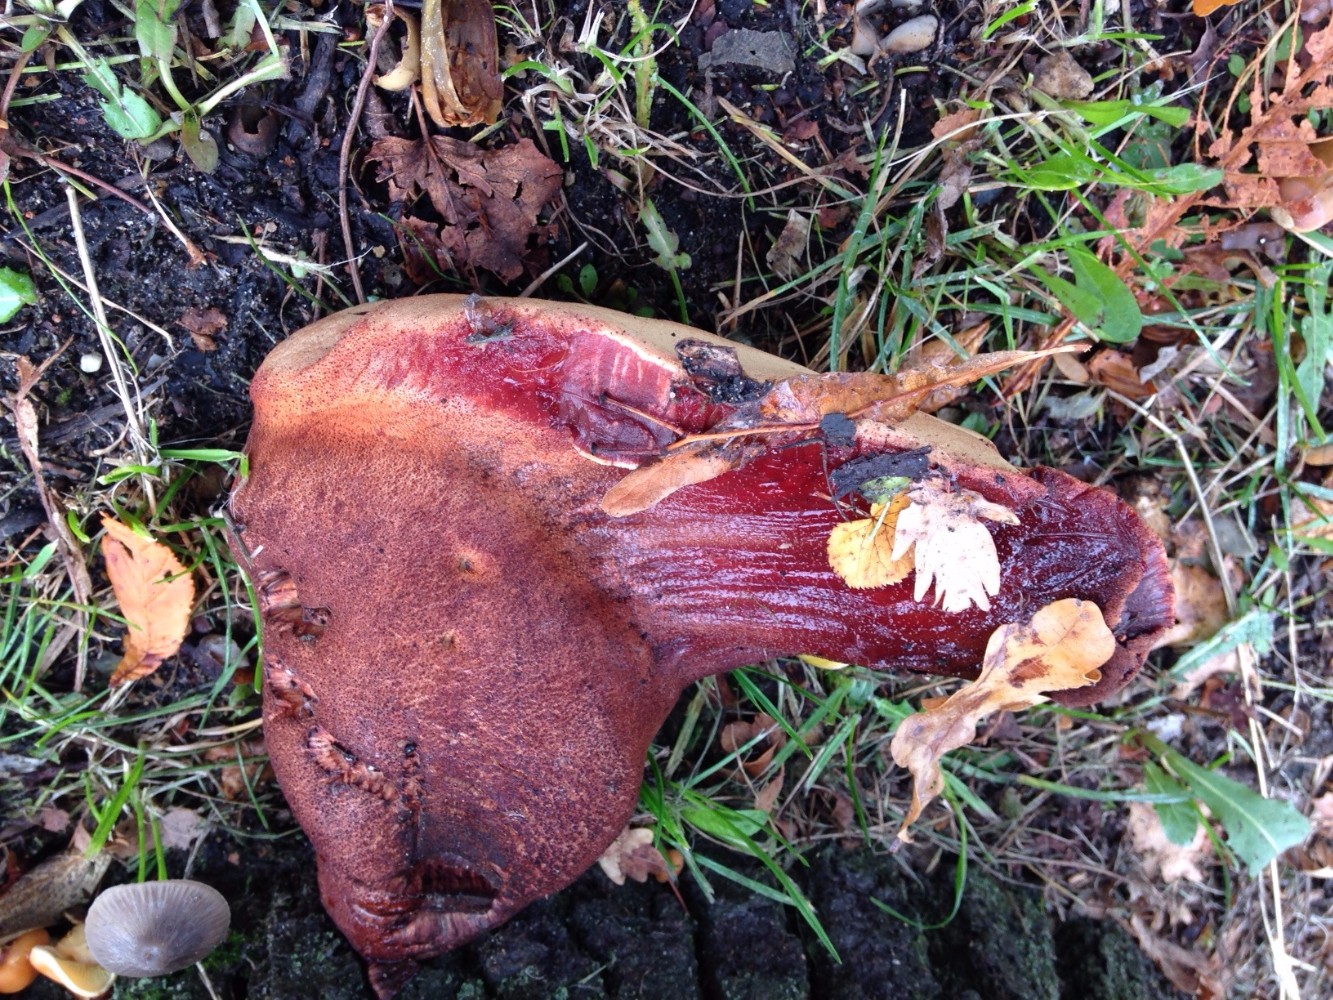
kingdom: Fungi
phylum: Basidiomycota
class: Agaricomycetes
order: Agaricales
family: Fistulinaceae
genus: Fistulina
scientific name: Fistulina hepatica
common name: oksetunge
